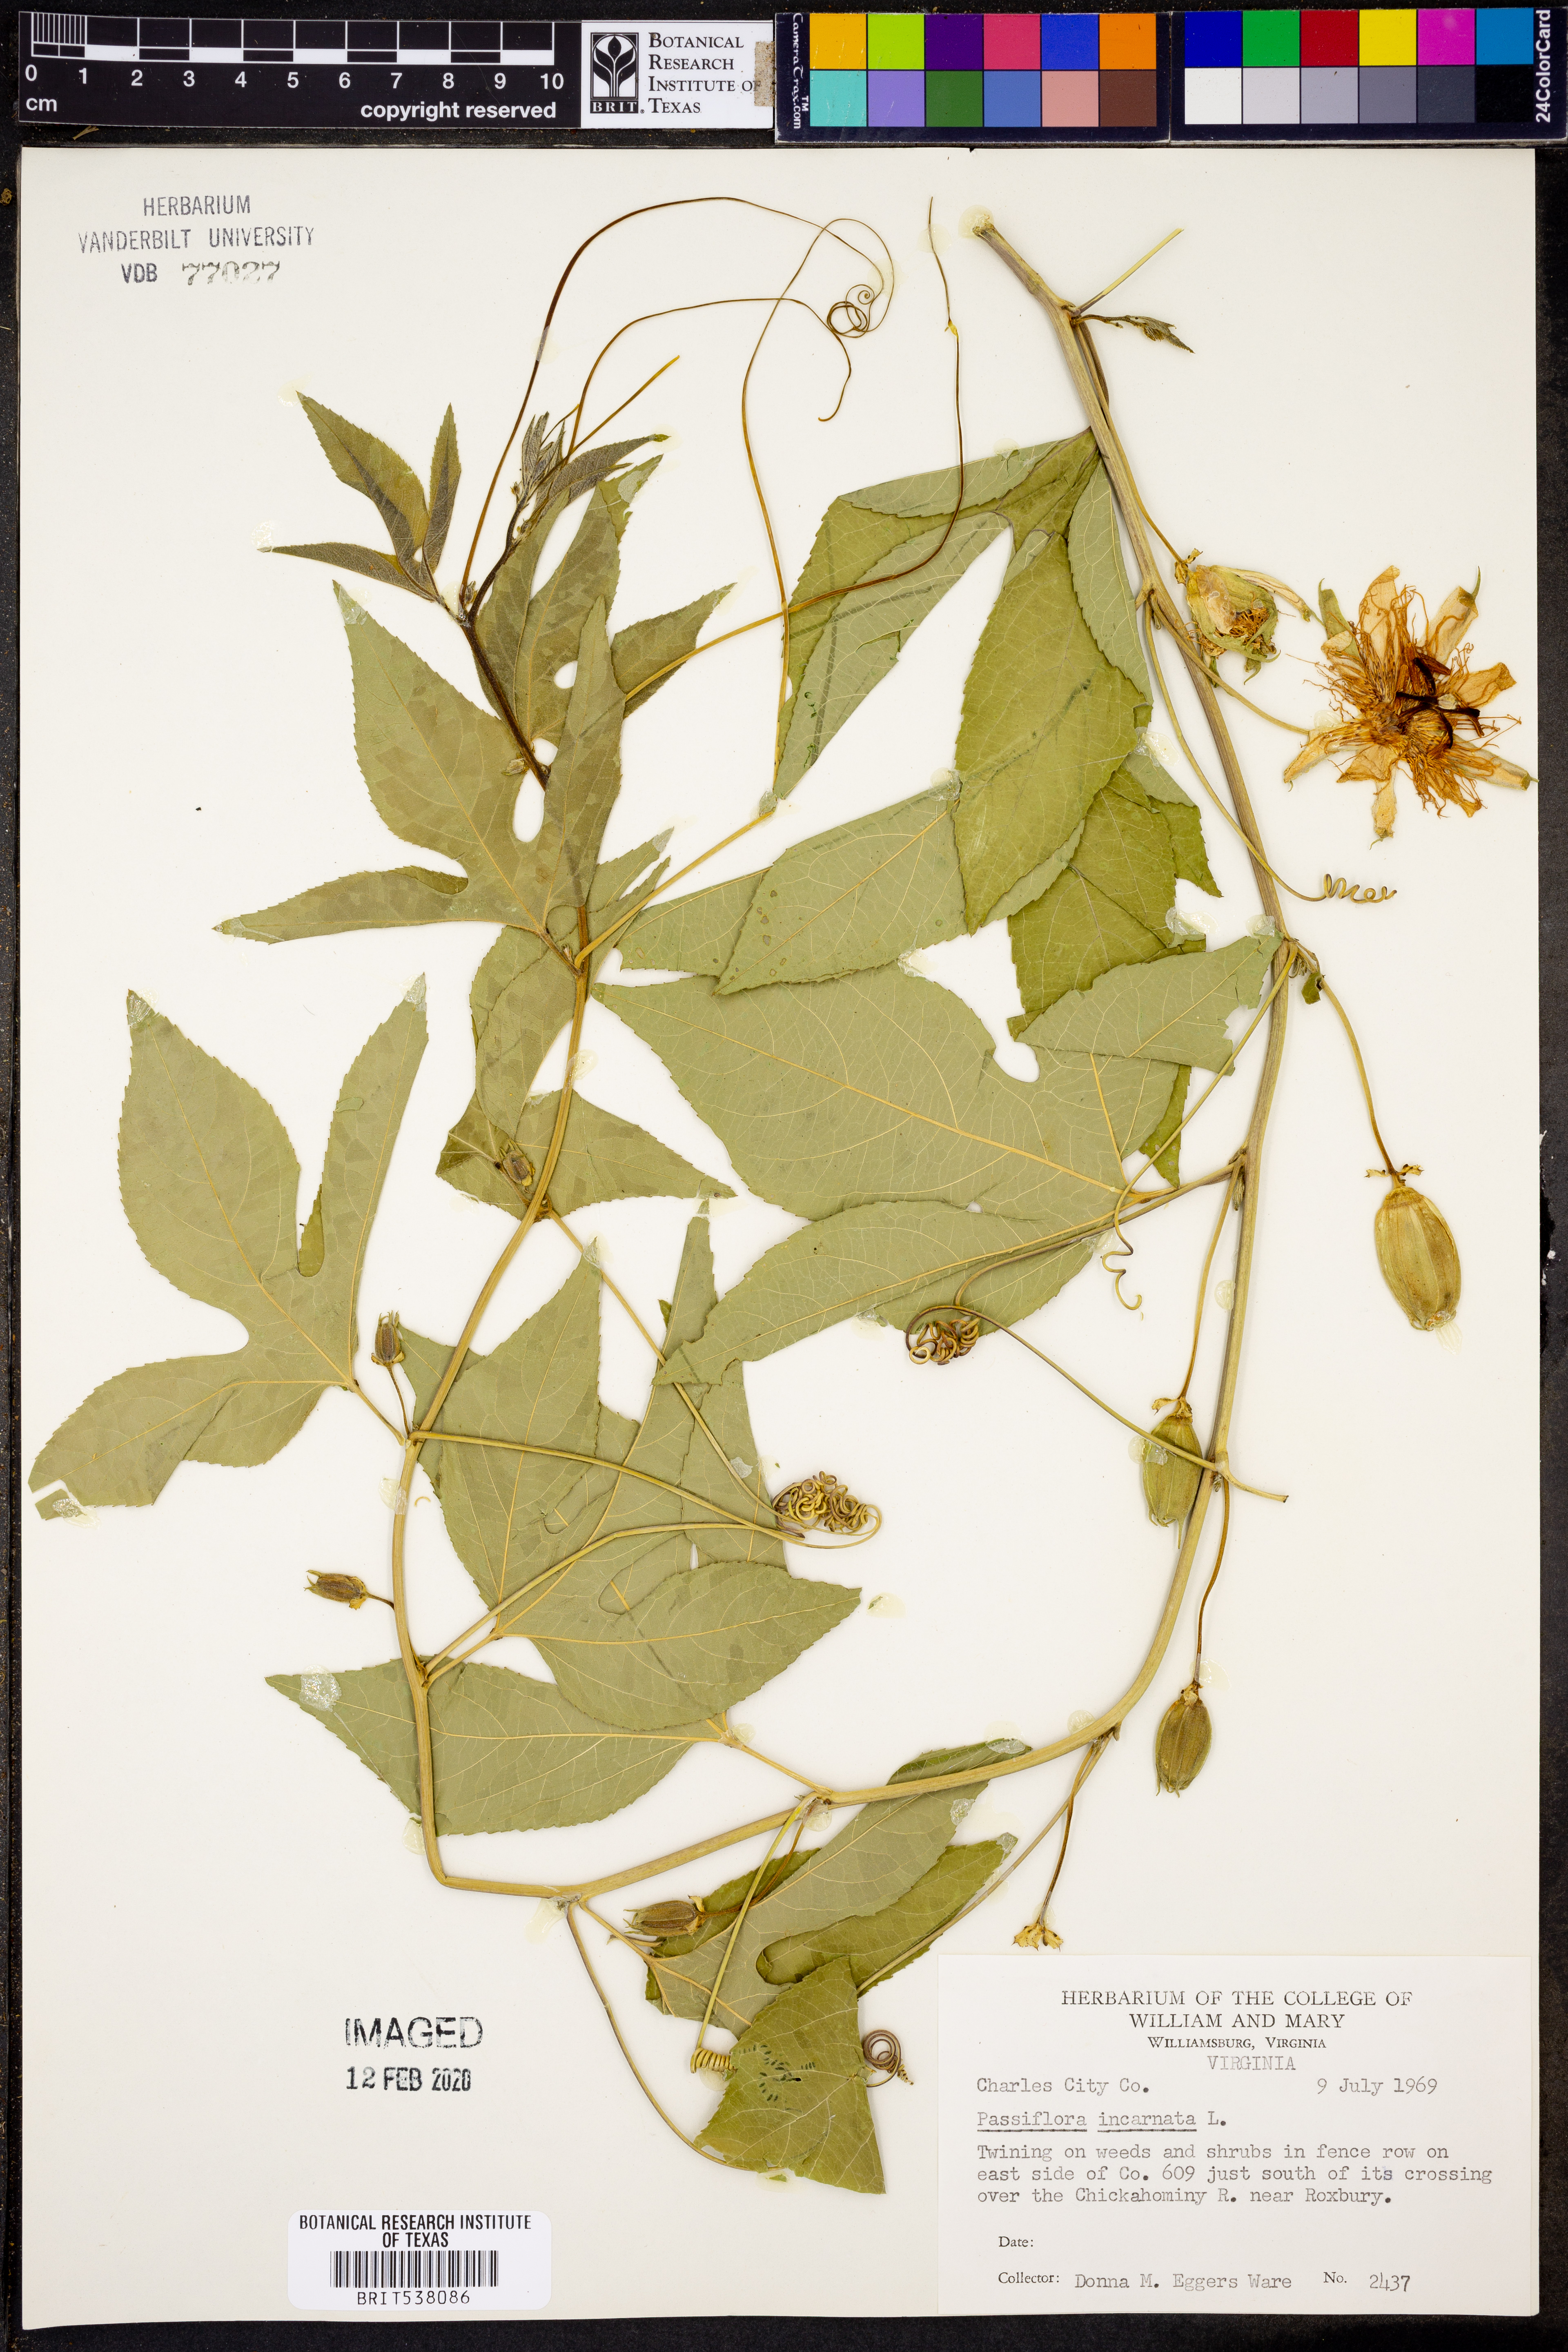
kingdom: Plantae
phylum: Tracheophyta
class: Magnoliopsida
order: Malpighiales
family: Passifloraceae
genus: Passiflora
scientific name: Passiflora incarnata
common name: Apricot-vine
